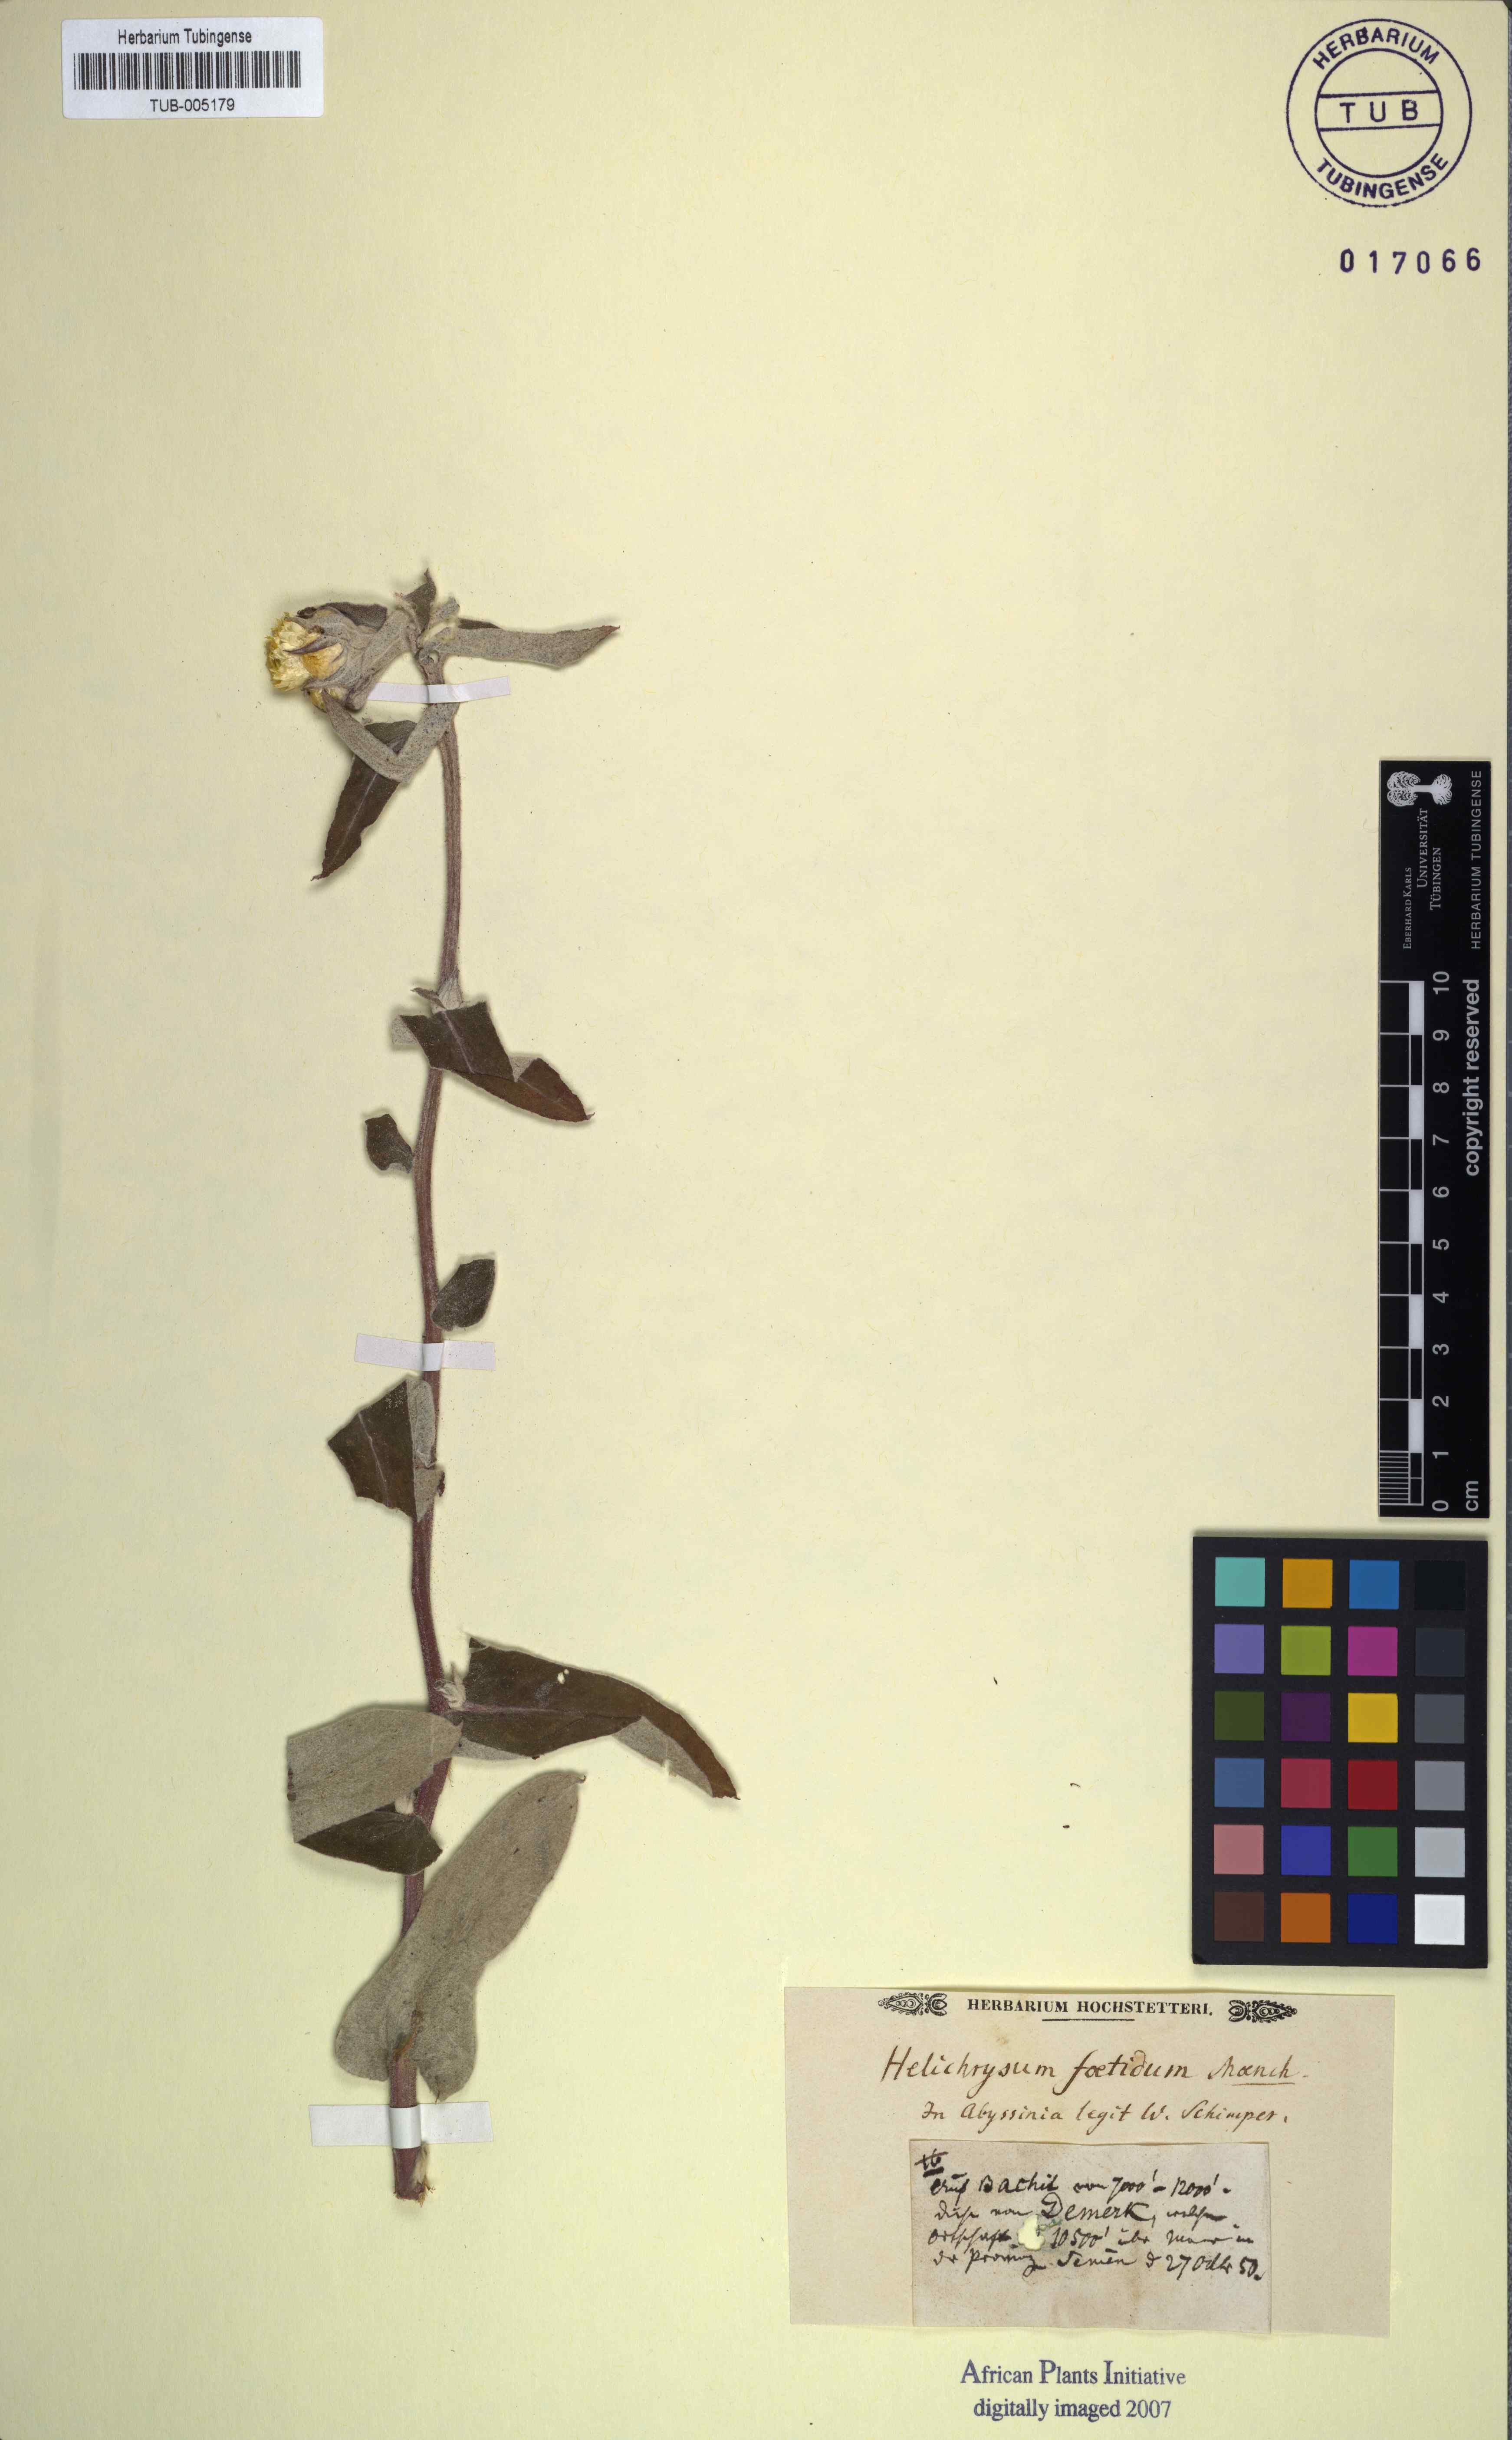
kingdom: Plantae
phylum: Tracheophyta
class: Magnoliopsida
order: Asterales
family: Asteraceae
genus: Helichrysum
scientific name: Helichrysum foetidum
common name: Stinking everlasting
